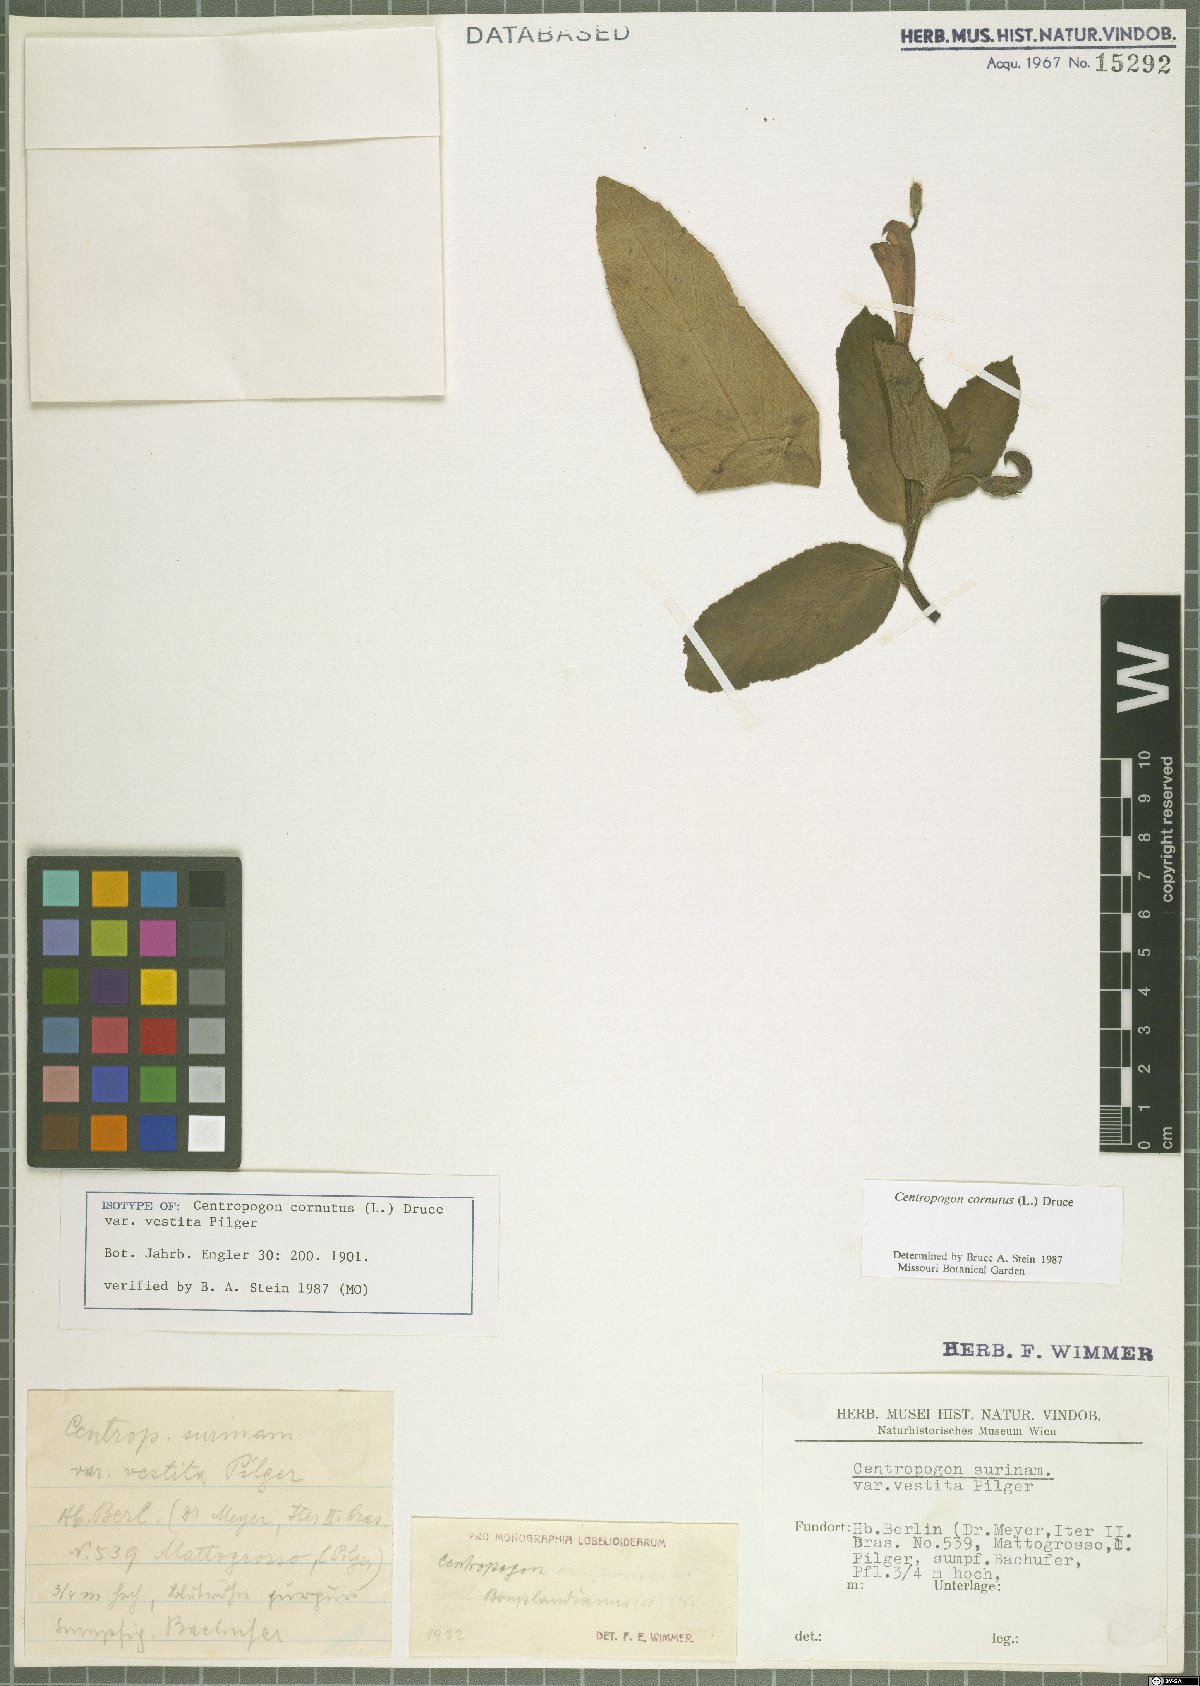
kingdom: Plantae
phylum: Tracheophyta
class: Magnoliopsida
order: Asterales
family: Campanulaceae
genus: Centropogon
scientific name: Centropogon cornutus
